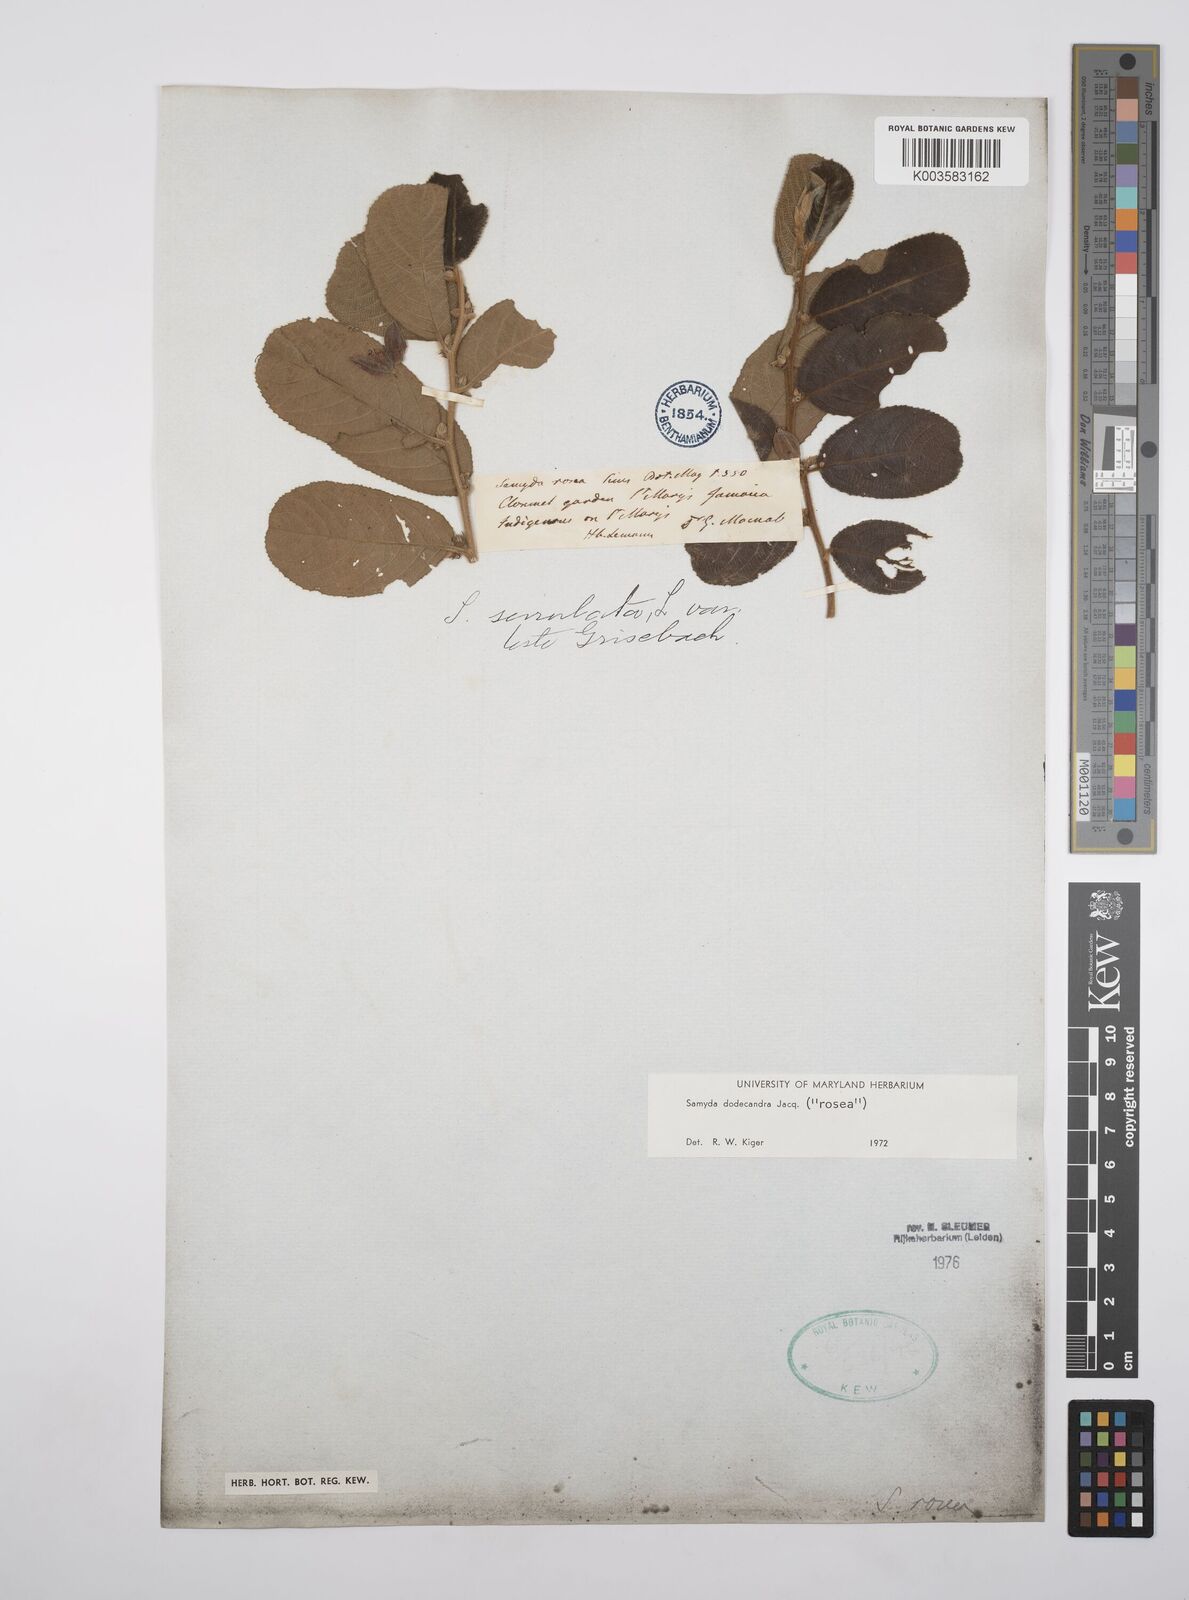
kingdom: Plantae
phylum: Tracheophyta
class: Magnoliopsida
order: Malpighiales
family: Salicaceae
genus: Casearia
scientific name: Casearia dodecandra
